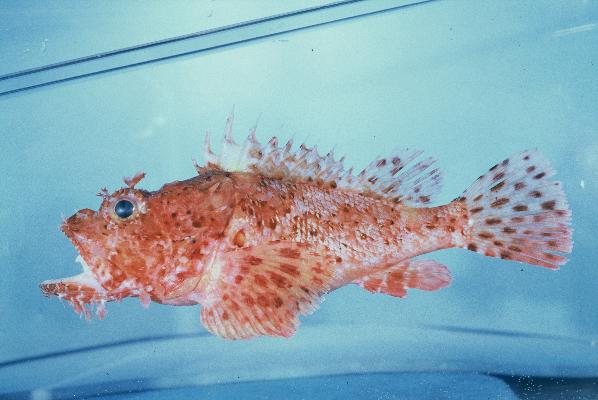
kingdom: Animalia
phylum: Chordata
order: Scorpaeniformes
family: Scorpaenidae
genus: Scorpaena
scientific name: Scorpaena scrofa
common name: Red scorpionfish
